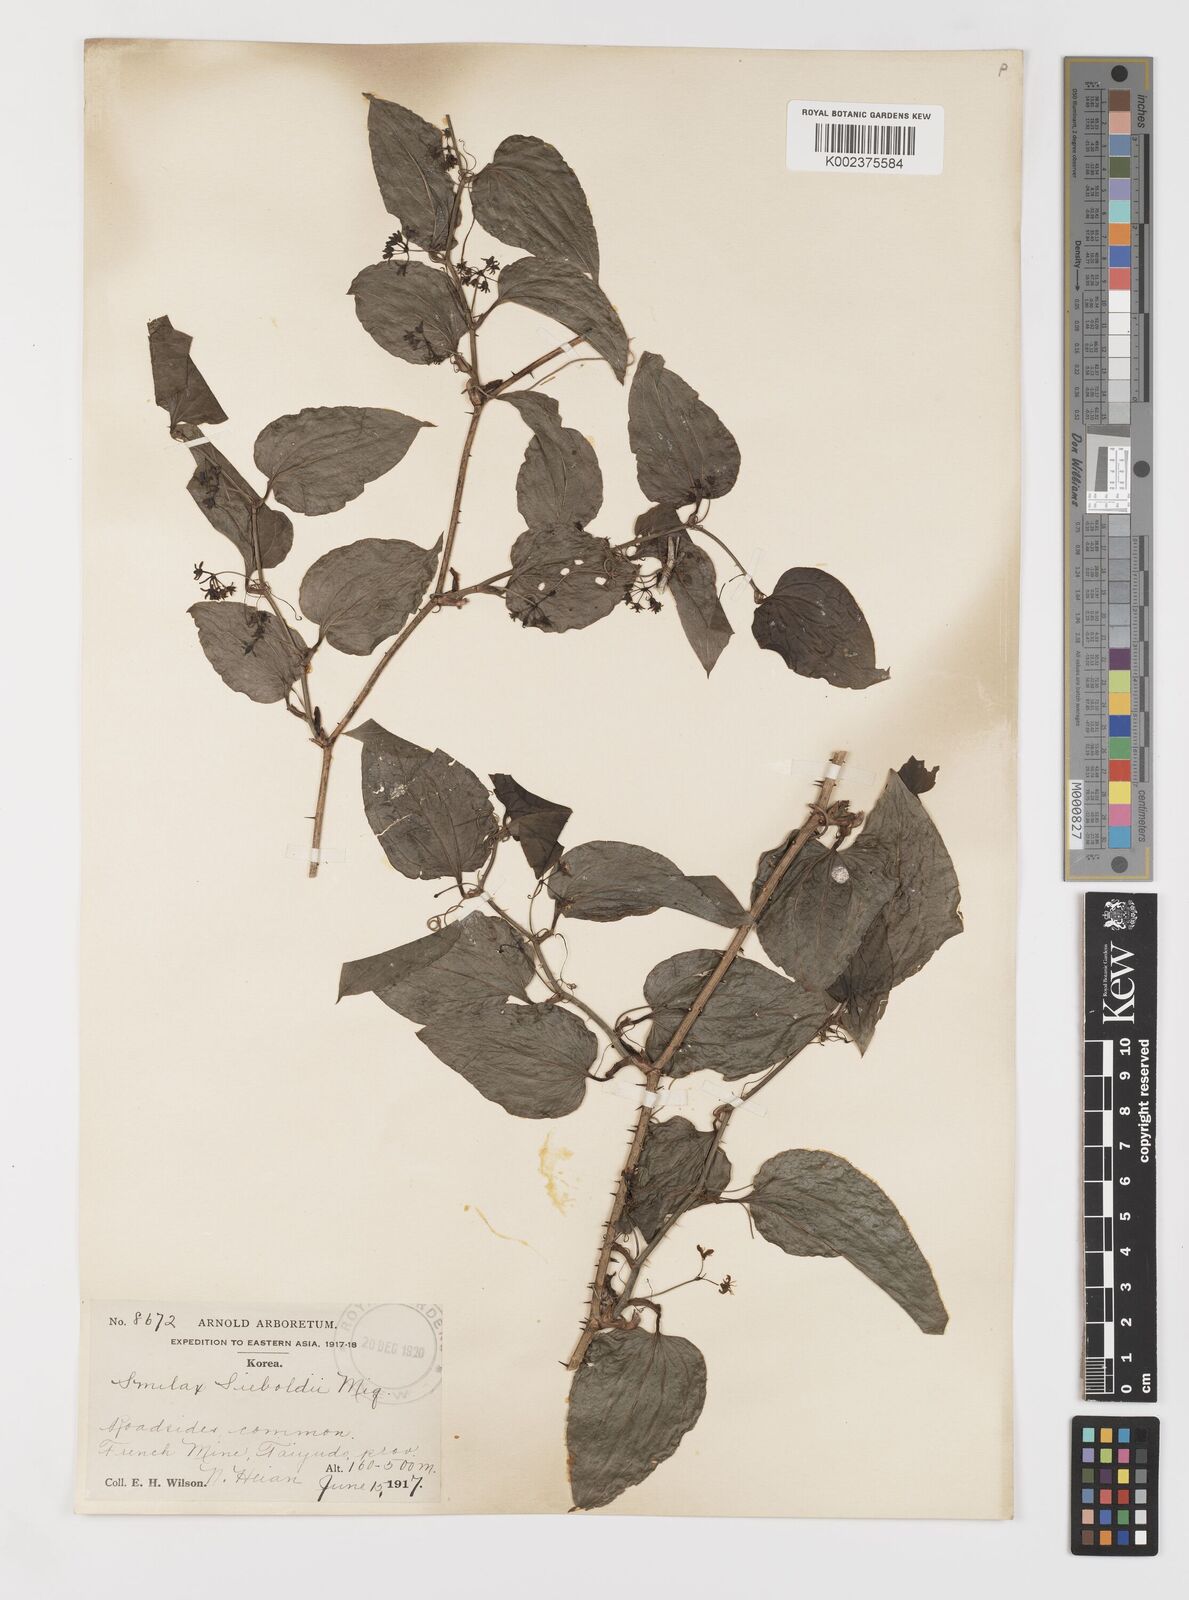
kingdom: Plantae
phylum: Tracheophyta
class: Liliopsida
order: Liliales
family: Smilacaceae
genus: Smilax
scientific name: Smilax sieboldii
